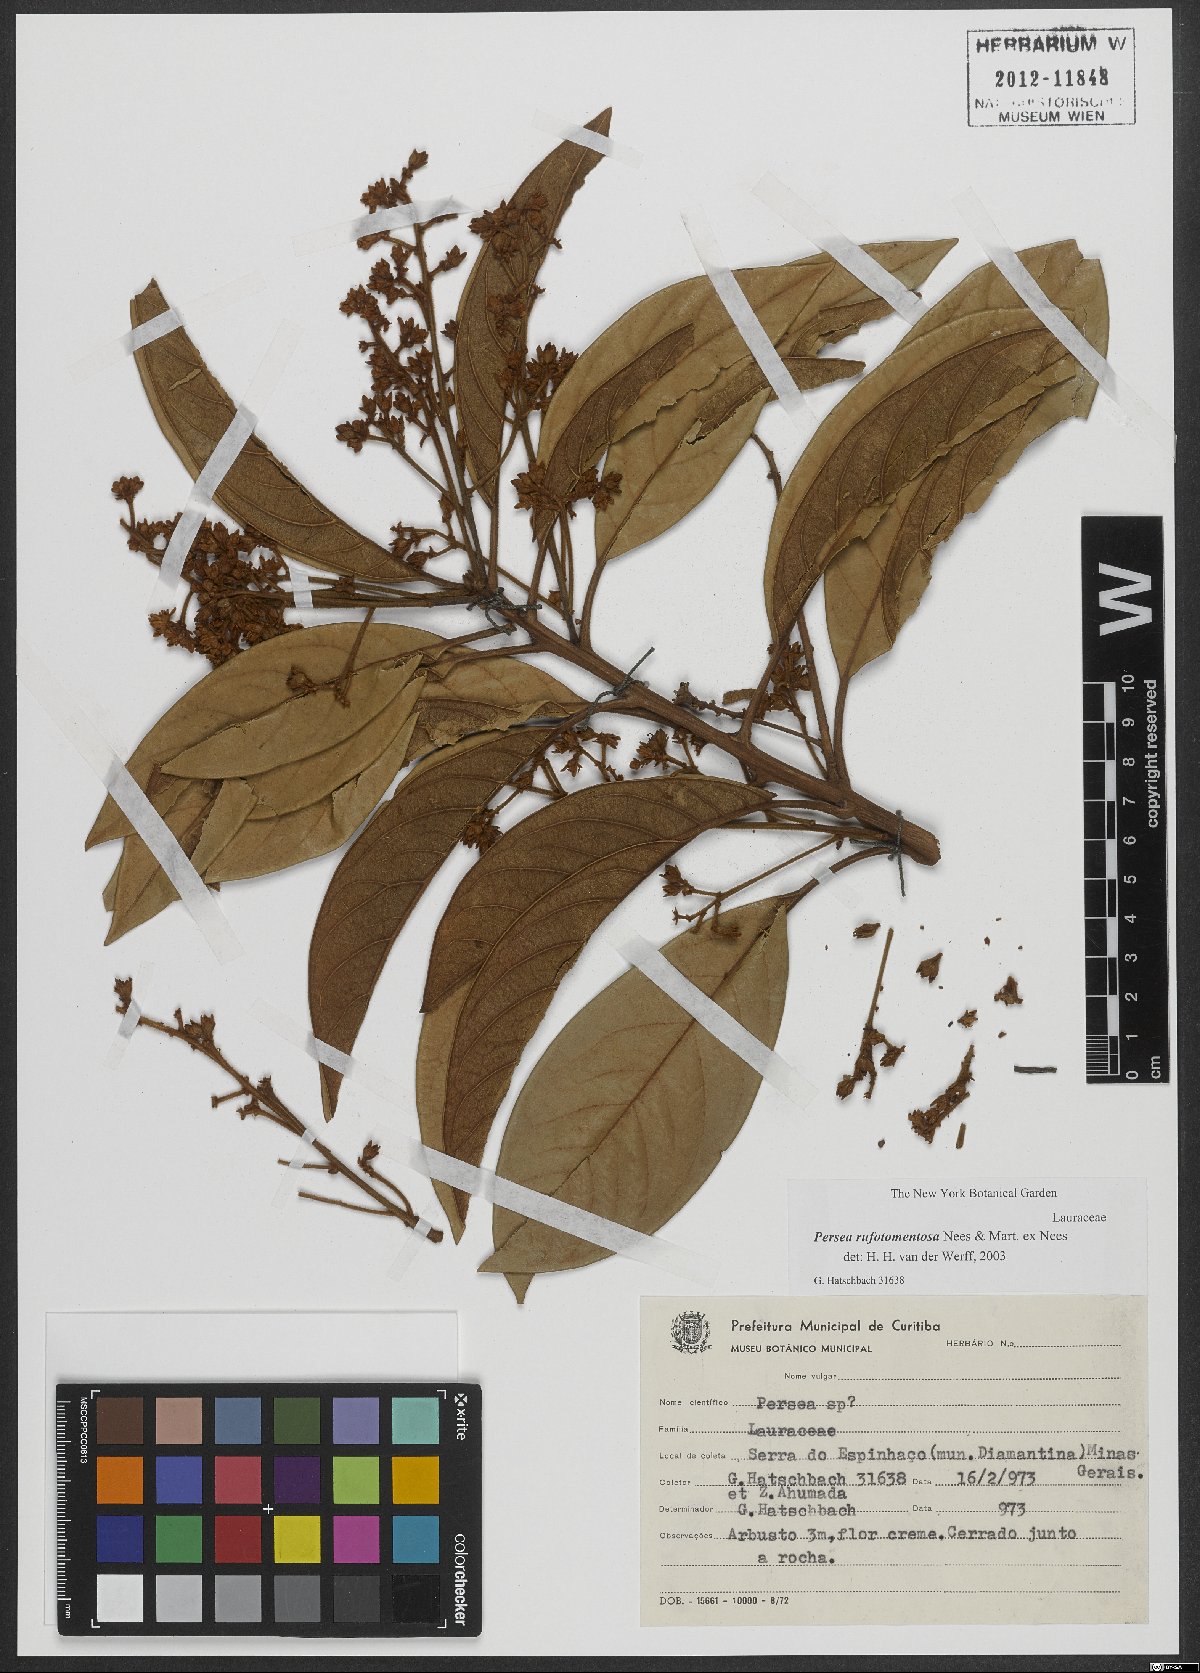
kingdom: Plantae
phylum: Tracheophyta
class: Magnoliopsida
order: Laurales
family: Lauraceae
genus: Persea
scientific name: Persea rufotomentosa
